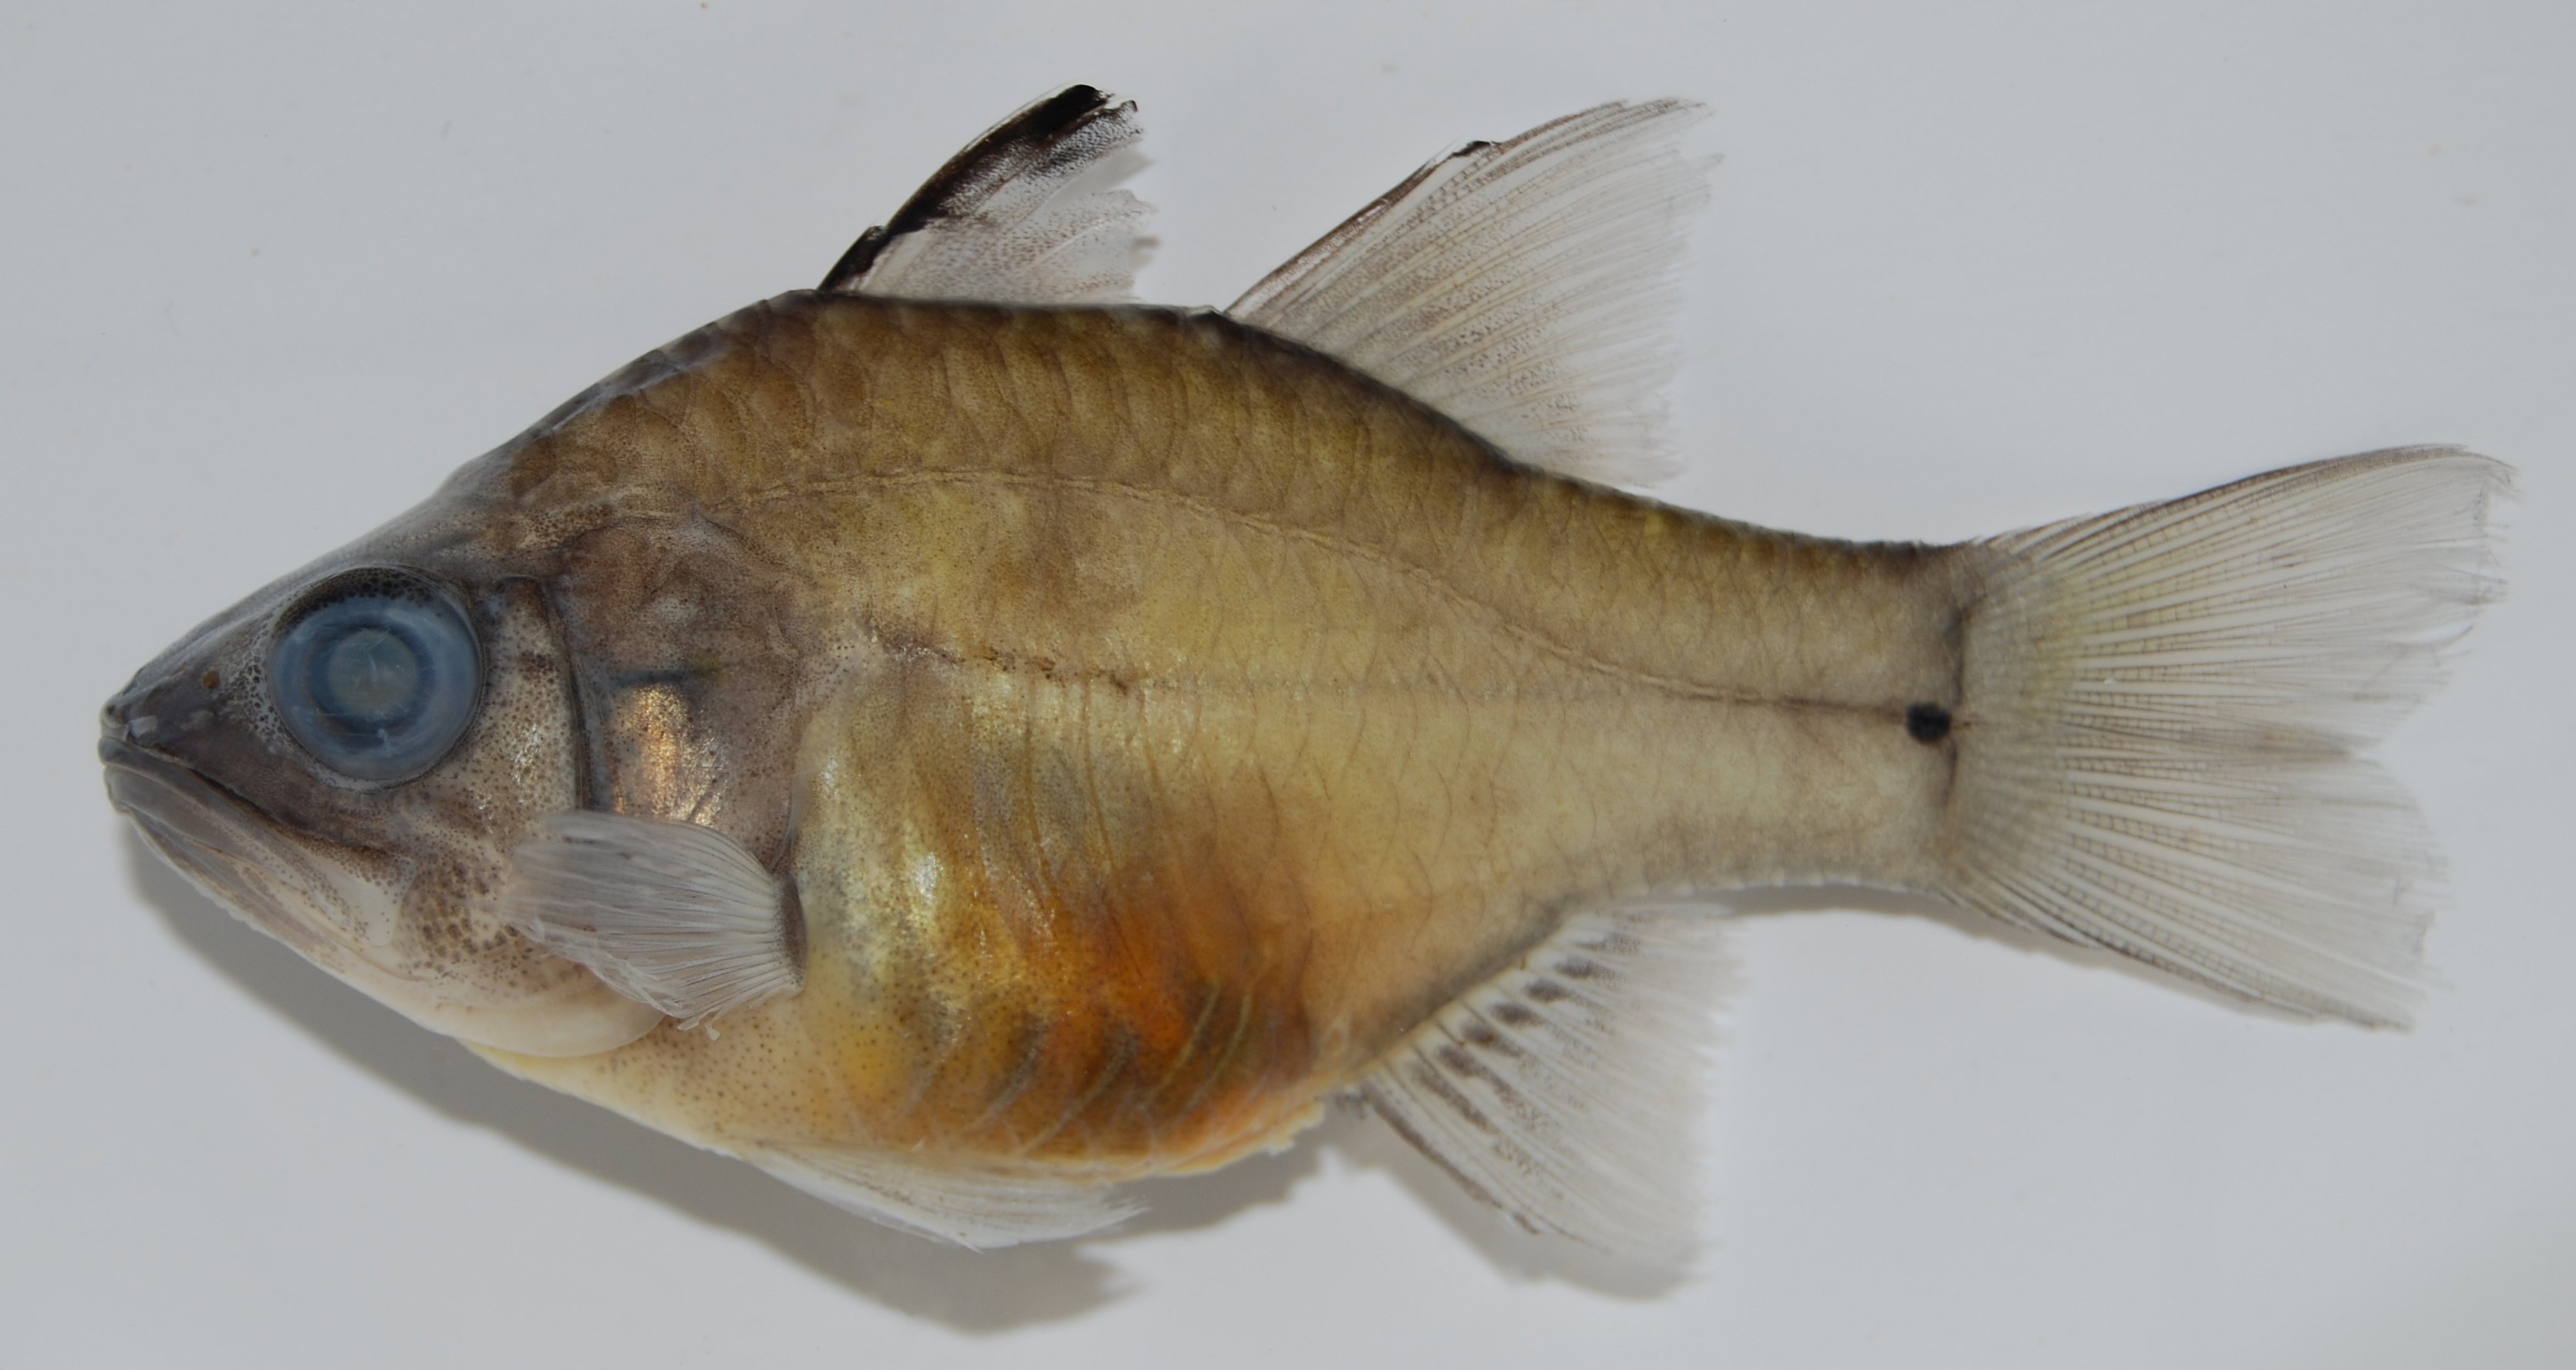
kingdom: Animalia
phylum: Chordata
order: Perciformes
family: Apogonidae
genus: Fibramia
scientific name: Fibramia lateralis
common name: Ceram cardinalfish
